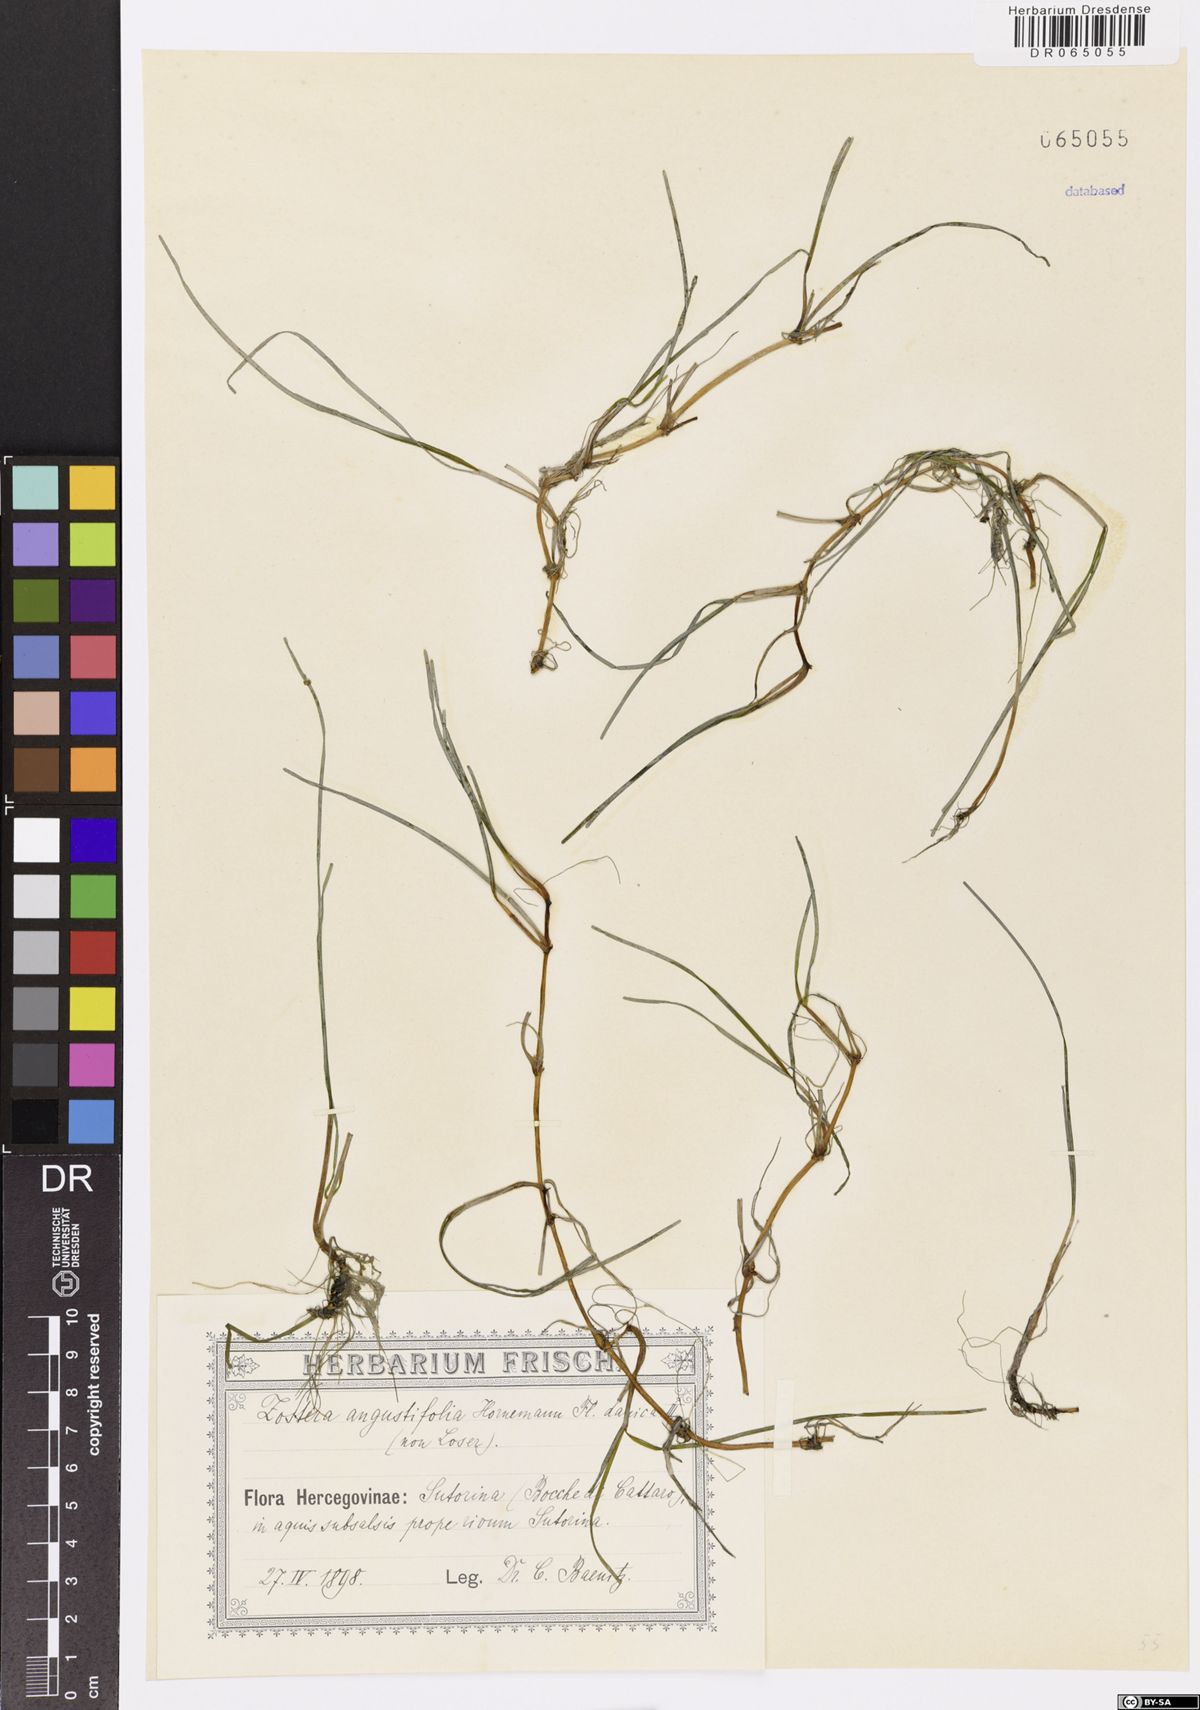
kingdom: Plantae
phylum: Tracheophyta
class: Liliopsida
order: Alismatales
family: Zosteraceae
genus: Zostera
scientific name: Zostera angustifolia
